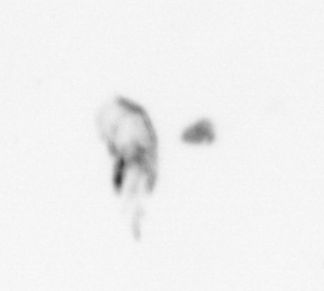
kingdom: Animalia
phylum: Arthropoda
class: Maxillopoda
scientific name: Maxillopoda
